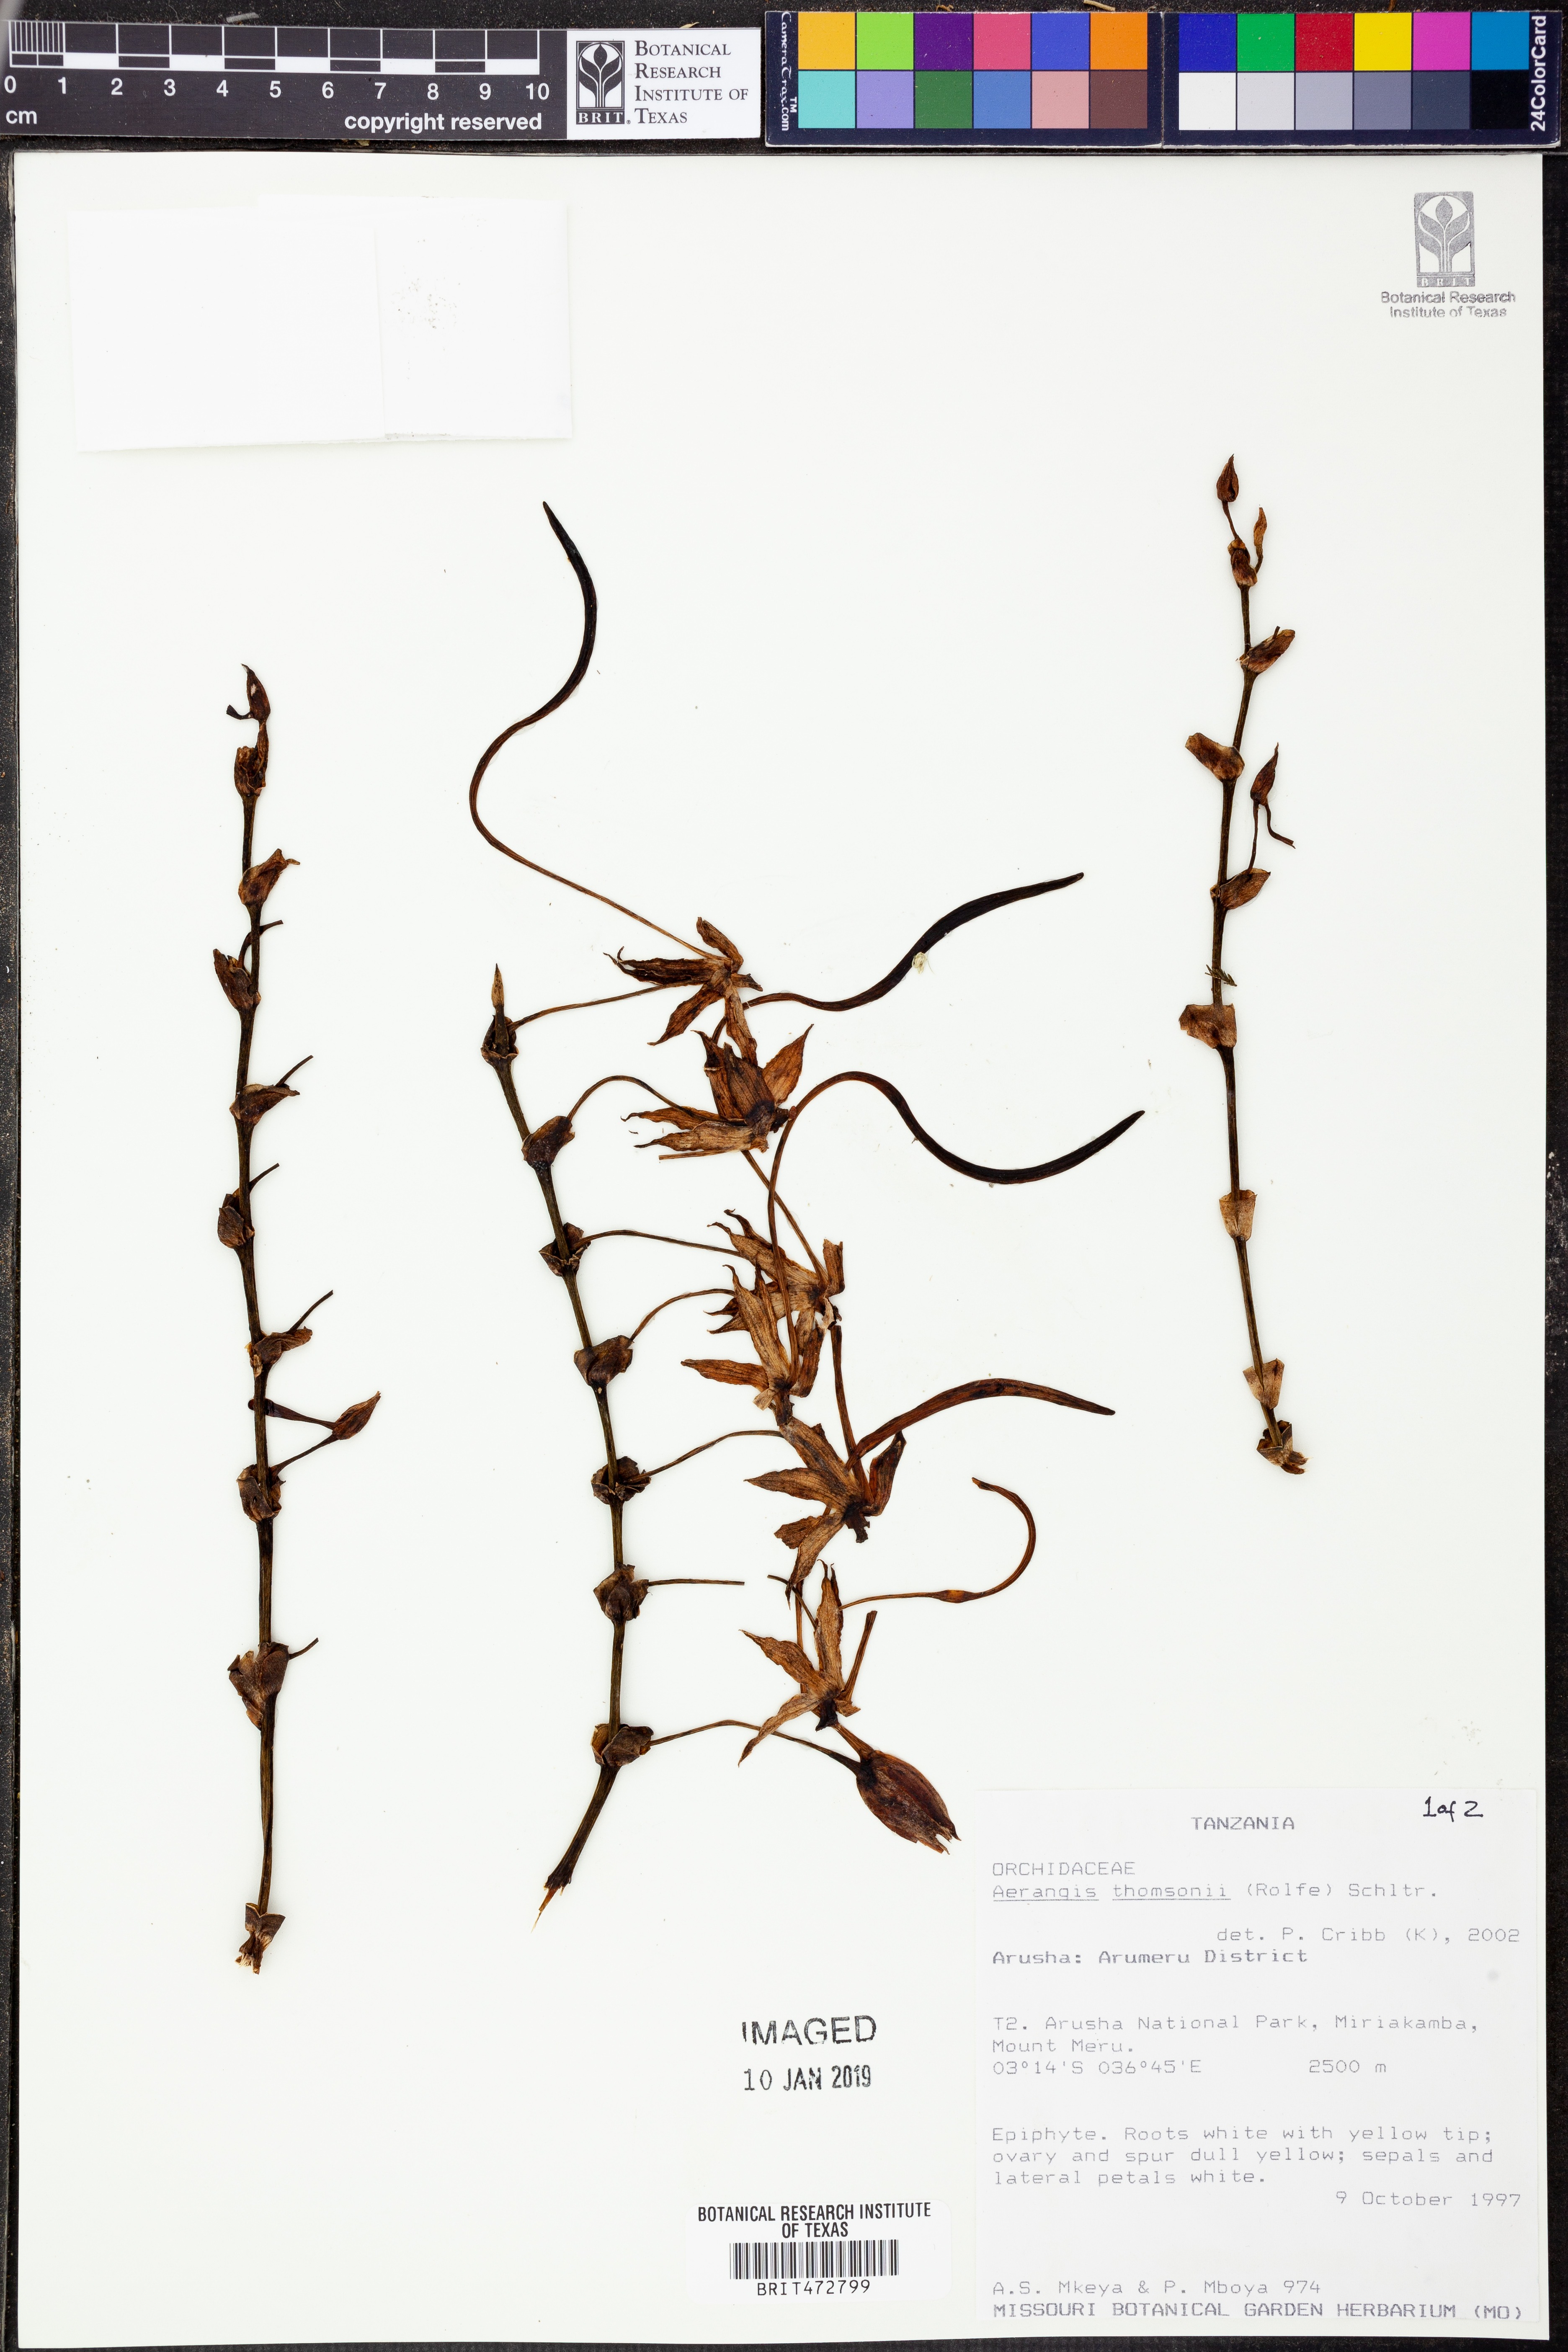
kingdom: Plantae
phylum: Tracheophyta
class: Liliopsida
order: Asparagales
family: Orchidaceae
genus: Aerangis
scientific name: Aerangis thomsonii
